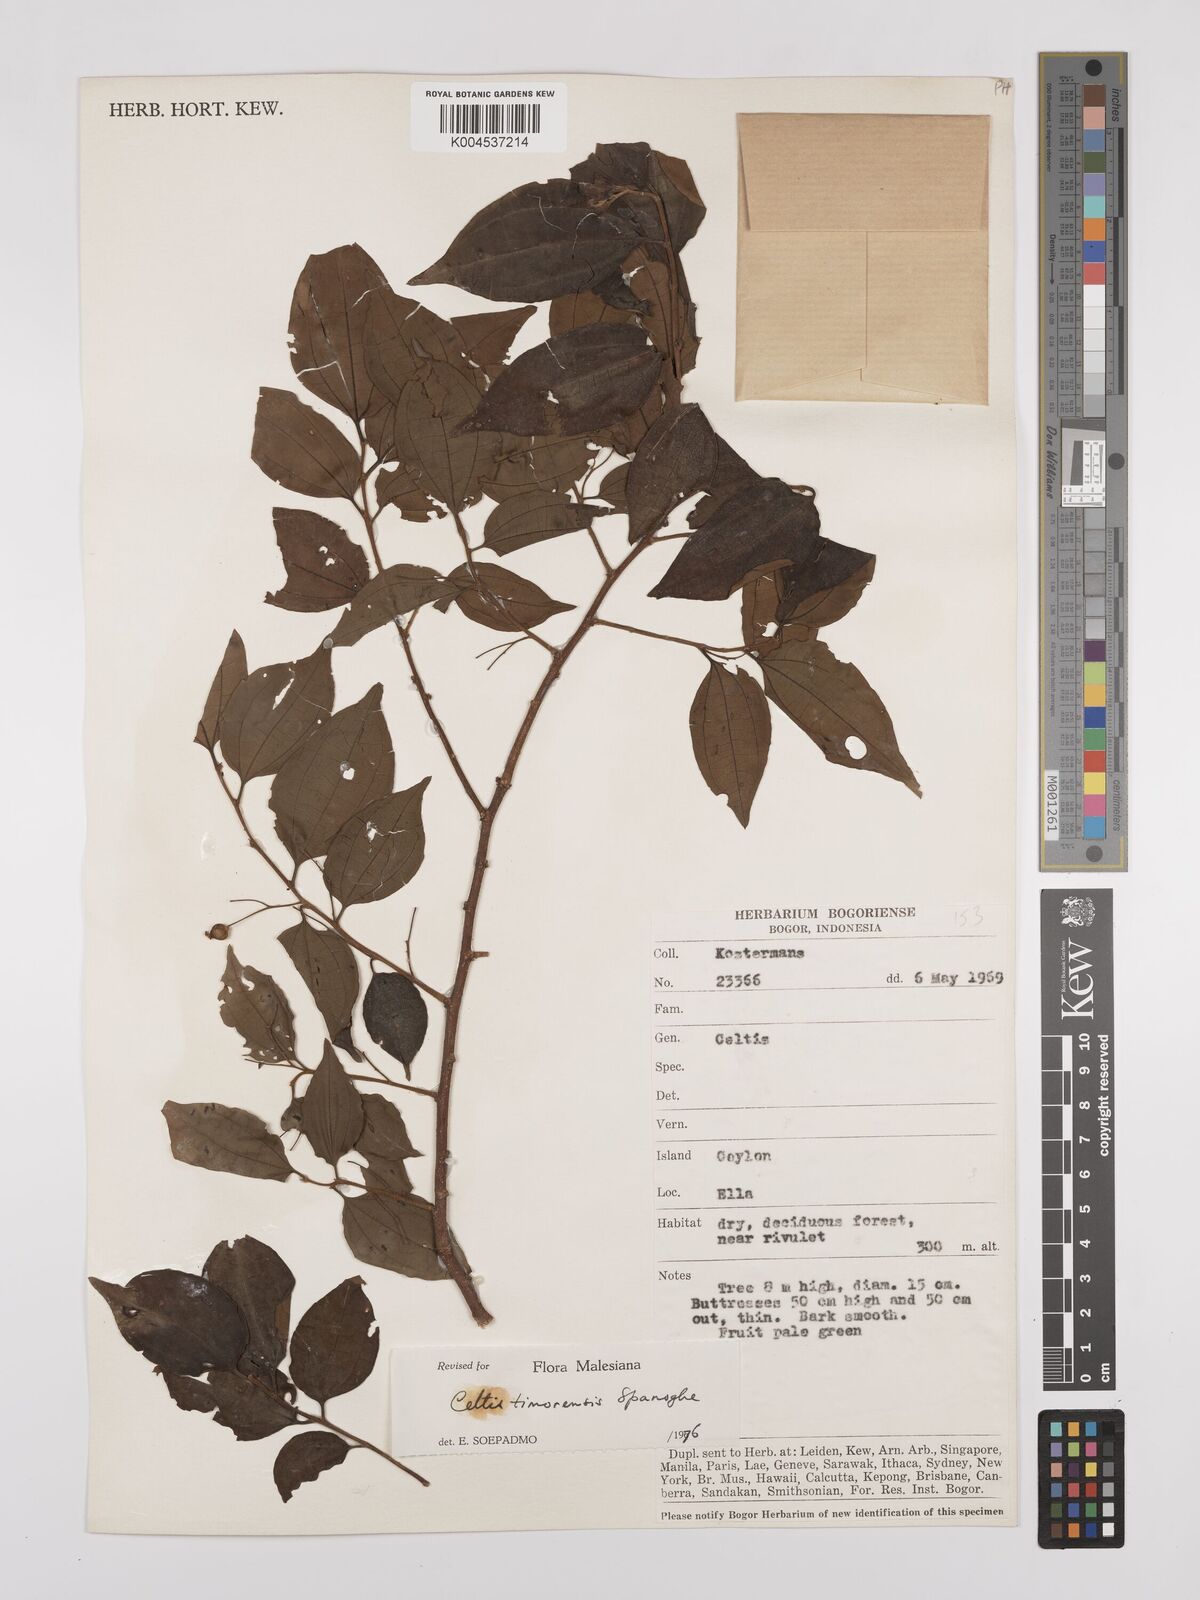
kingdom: Plantae
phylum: Tracheophyta
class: Magnoliopsida
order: Rosales
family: Cannabaceae
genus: Celtis
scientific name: Celtis timorensis
